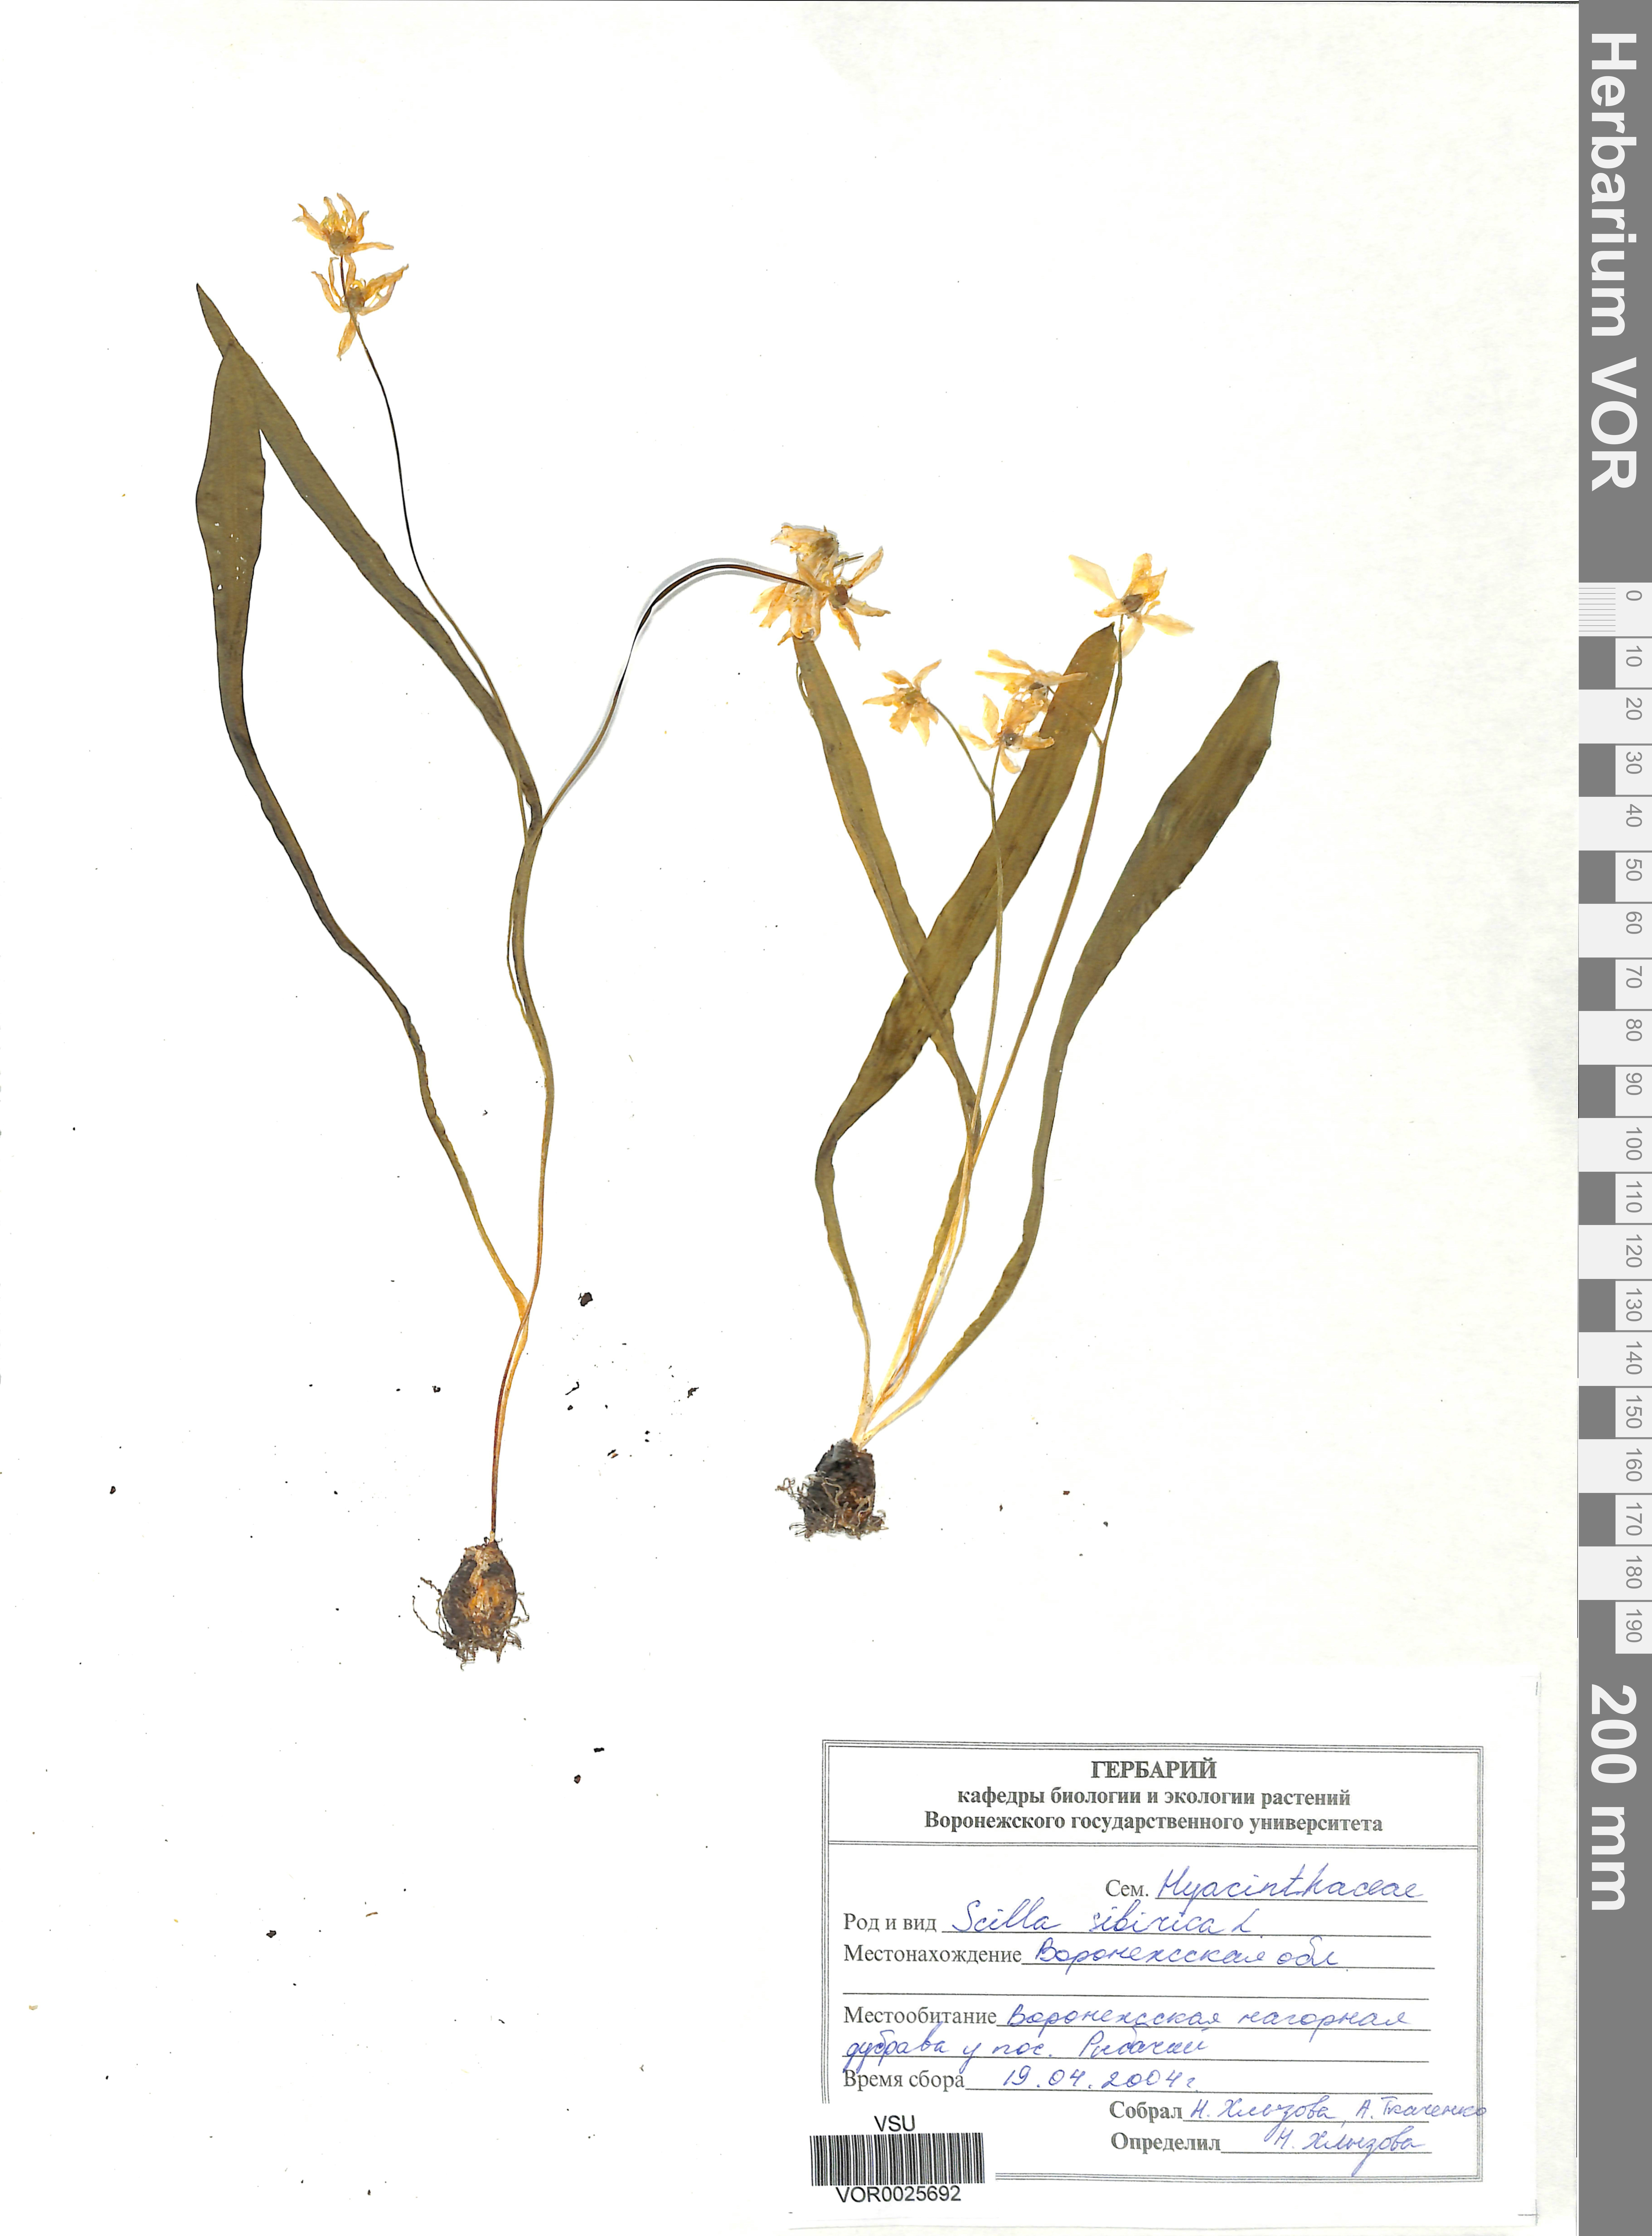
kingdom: Plantae
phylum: Tracheophyta
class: Liliopsida
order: Asparagales
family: Asparagaceae
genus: Scilla
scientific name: Scilla siberica
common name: Siberian squill
